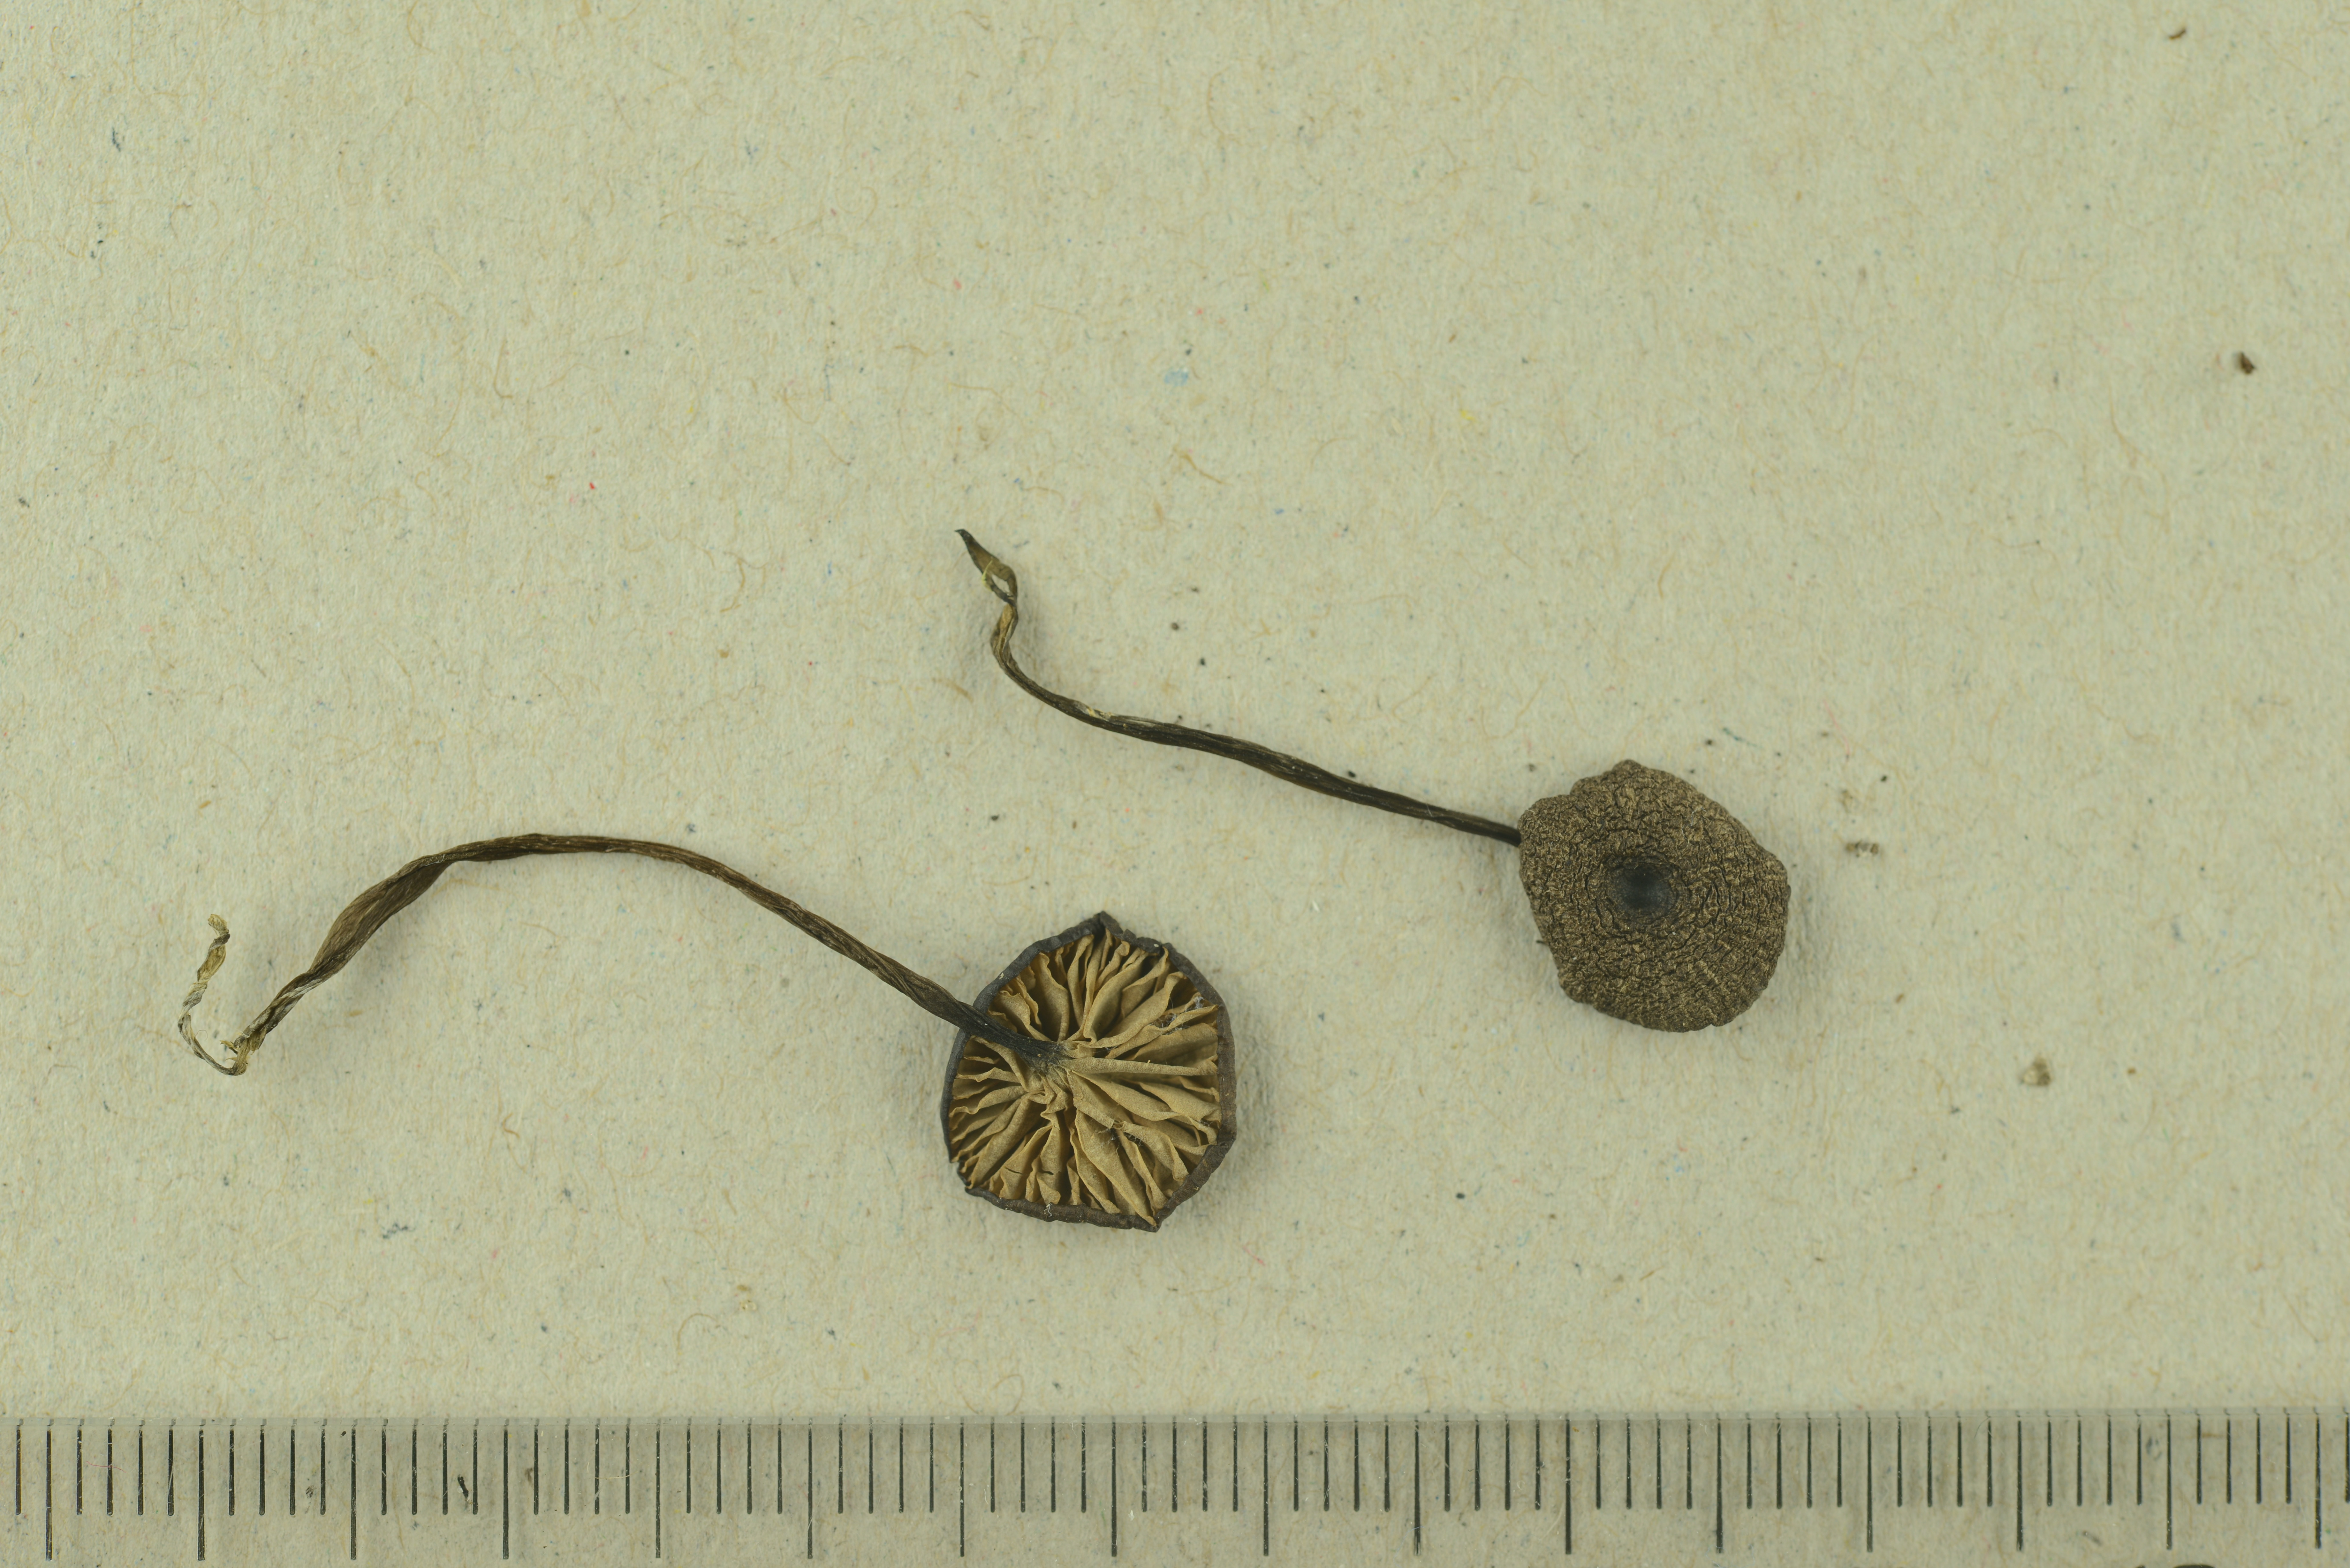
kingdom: Fungi
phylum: Basidiomycota
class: Agaricomycetes
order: Agaricales
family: Entolomataceae
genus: Entoloma
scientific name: Entoloma asprellum
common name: Roughened pinkgill
